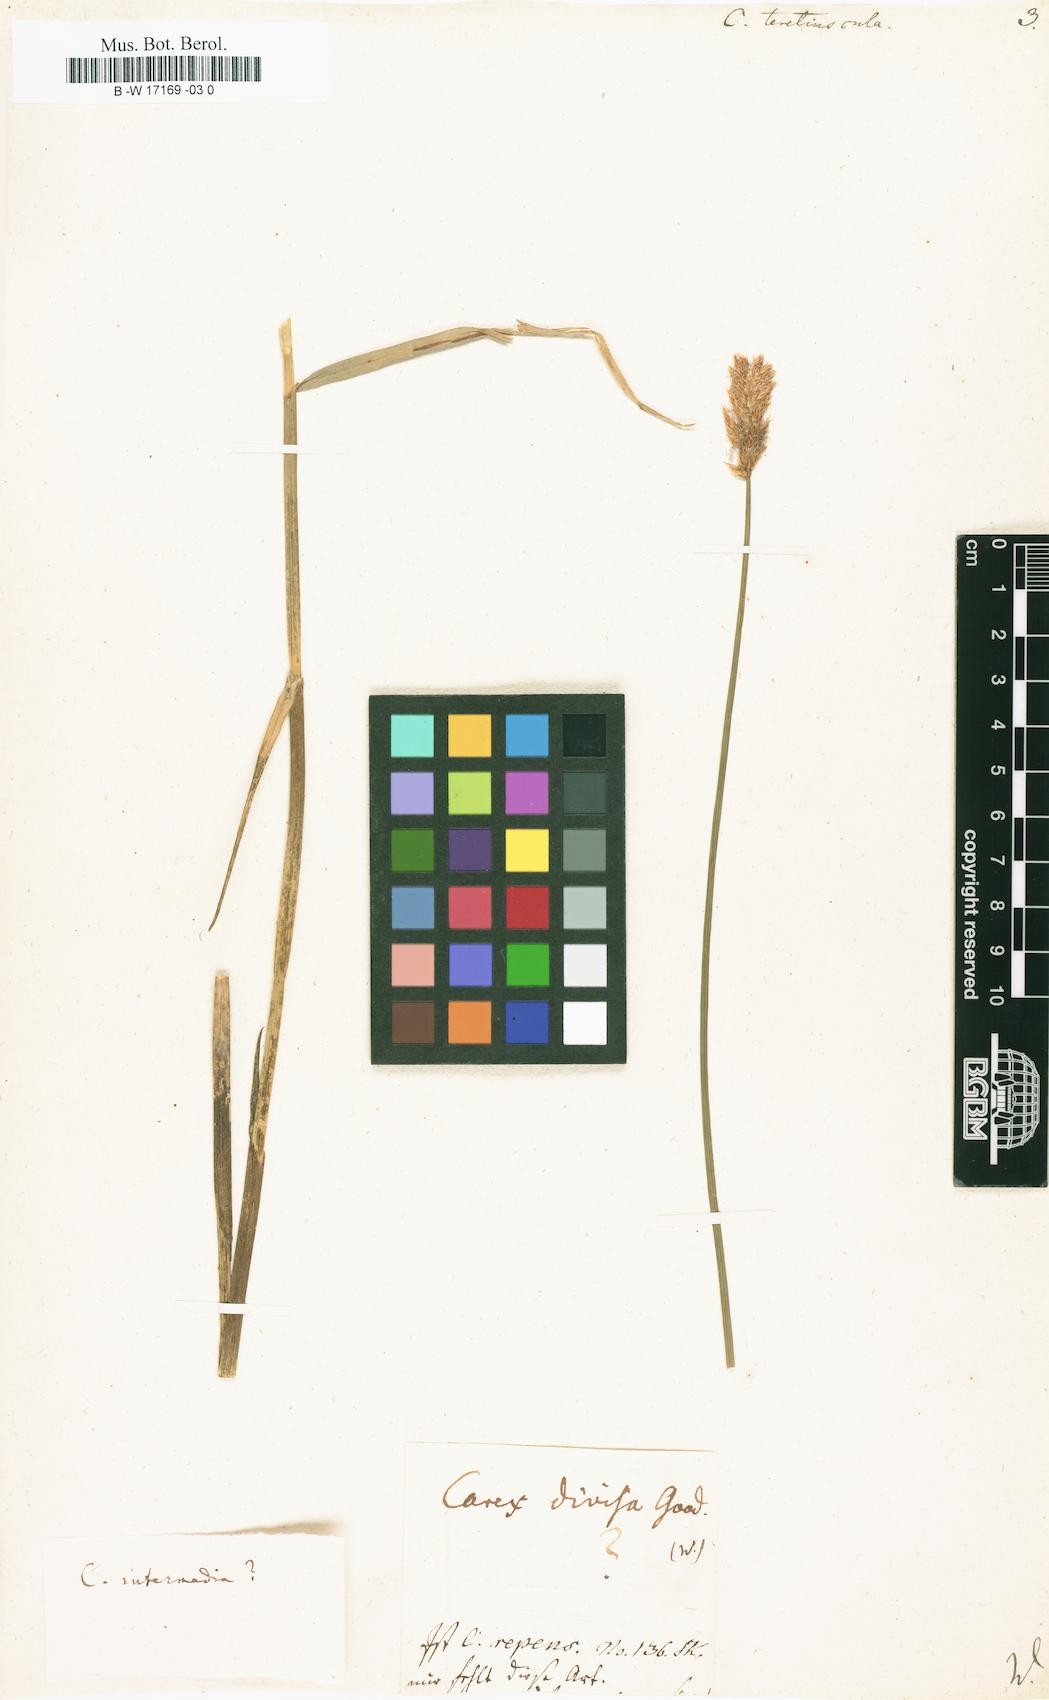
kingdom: Plantae
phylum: Tracheophyta
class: Liliopsida
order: Poales
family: Cyperaceae
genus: Carex
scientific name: Carex diandra
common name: Lesser tussock-sedge
